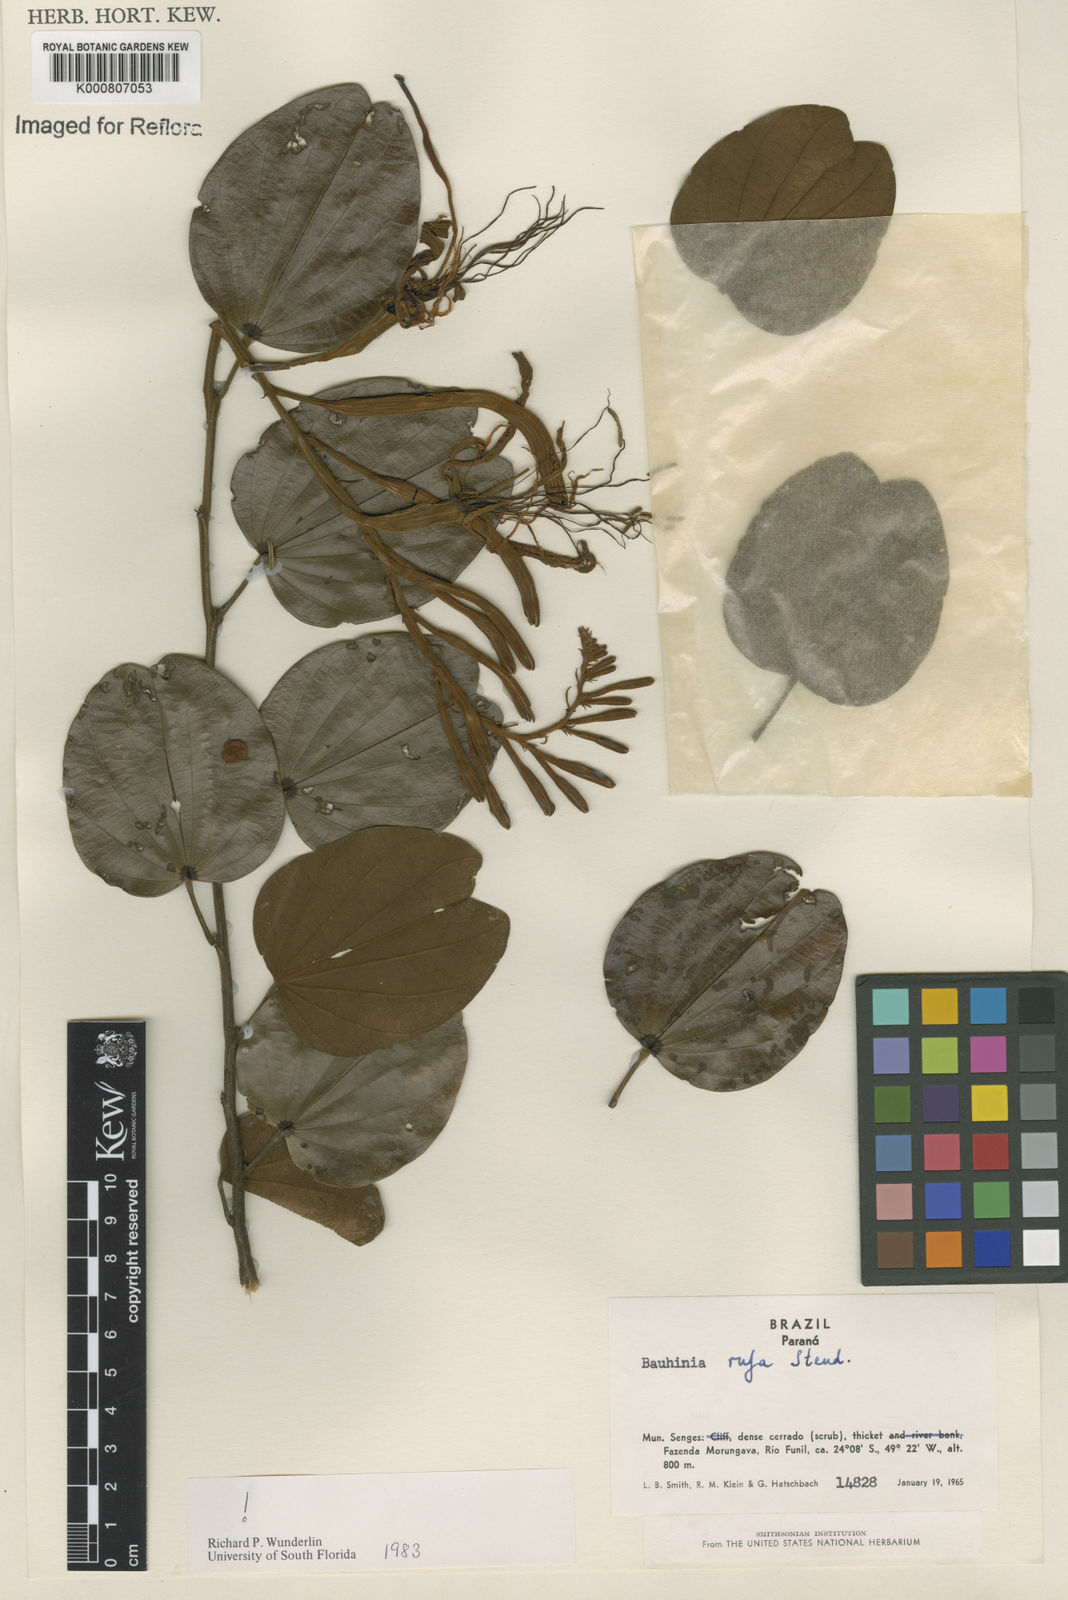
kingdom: Plantae
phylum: Tracheophyta
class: Magnoliopsida
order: Fabales
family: Fabaceae
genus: Bauhinia
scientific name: Bauhinia rufa
